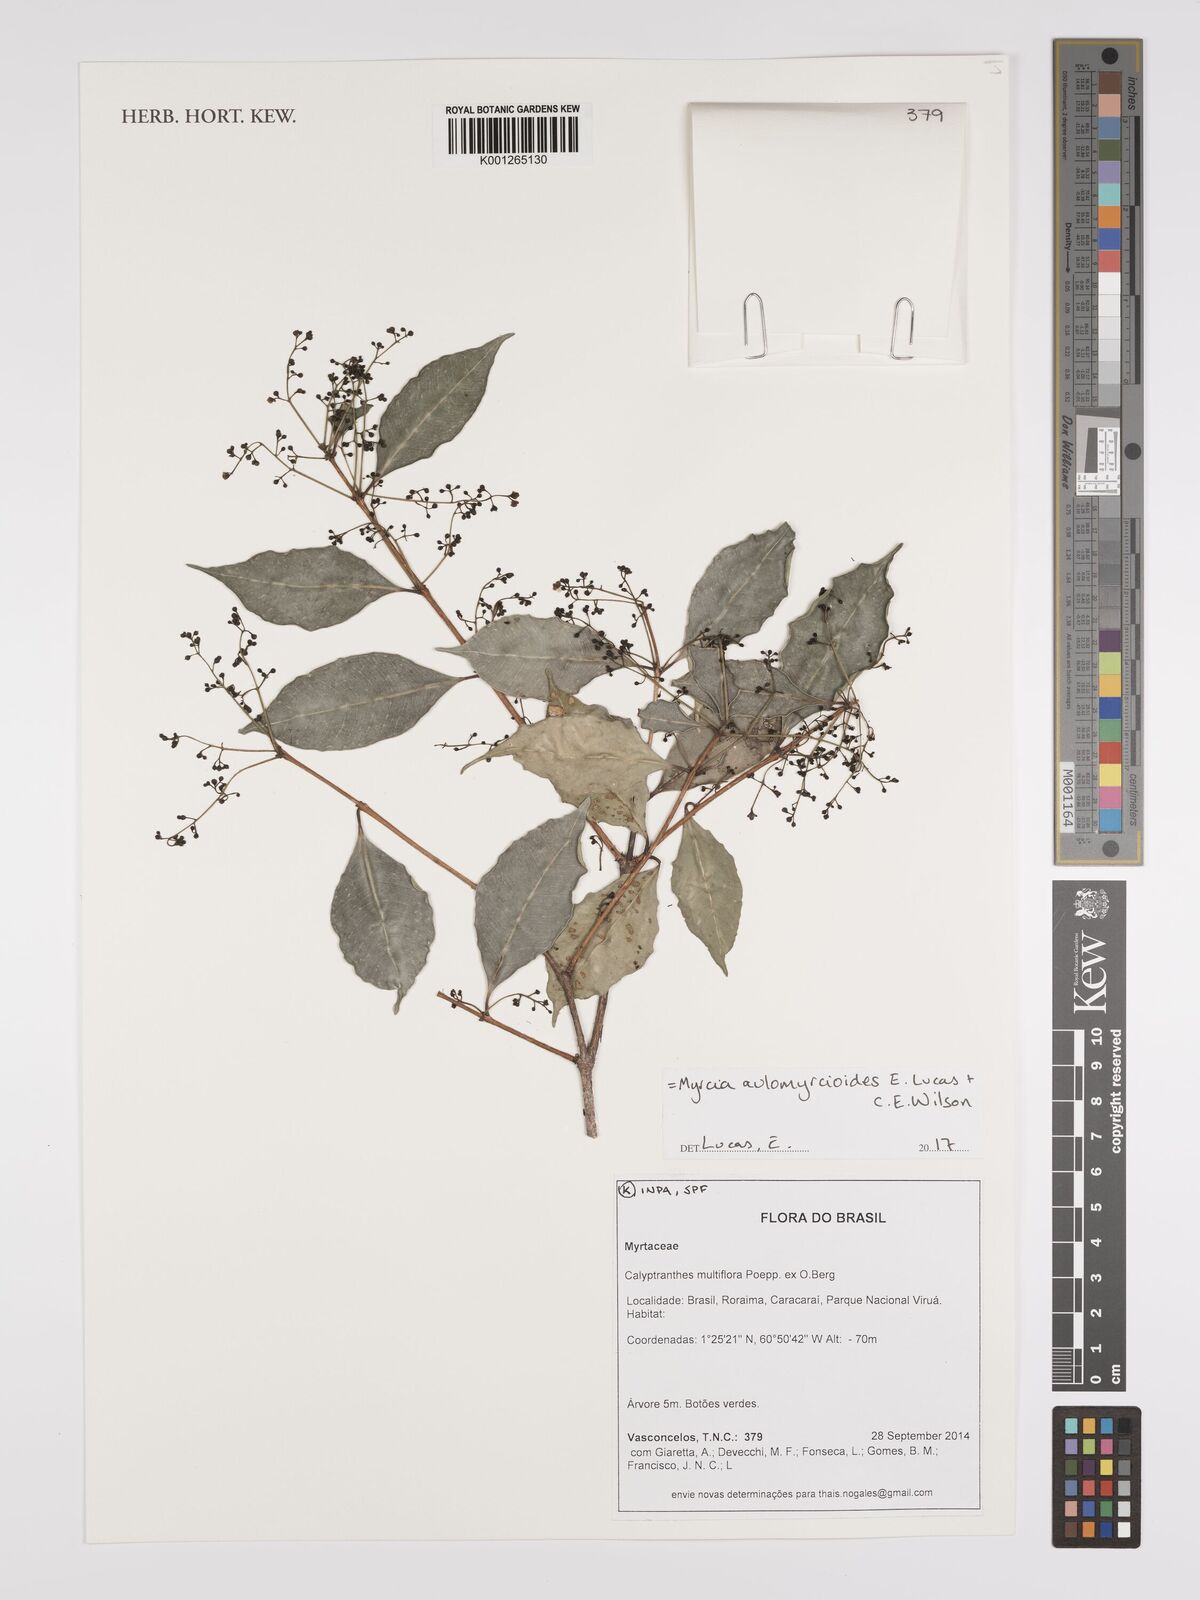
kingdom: Plantae
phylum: Tracheophyta
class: Magnoliopsida
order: Myrtales
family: Myrtaceae
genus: Myrcia
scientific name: Myrcia aulomyrcioides
